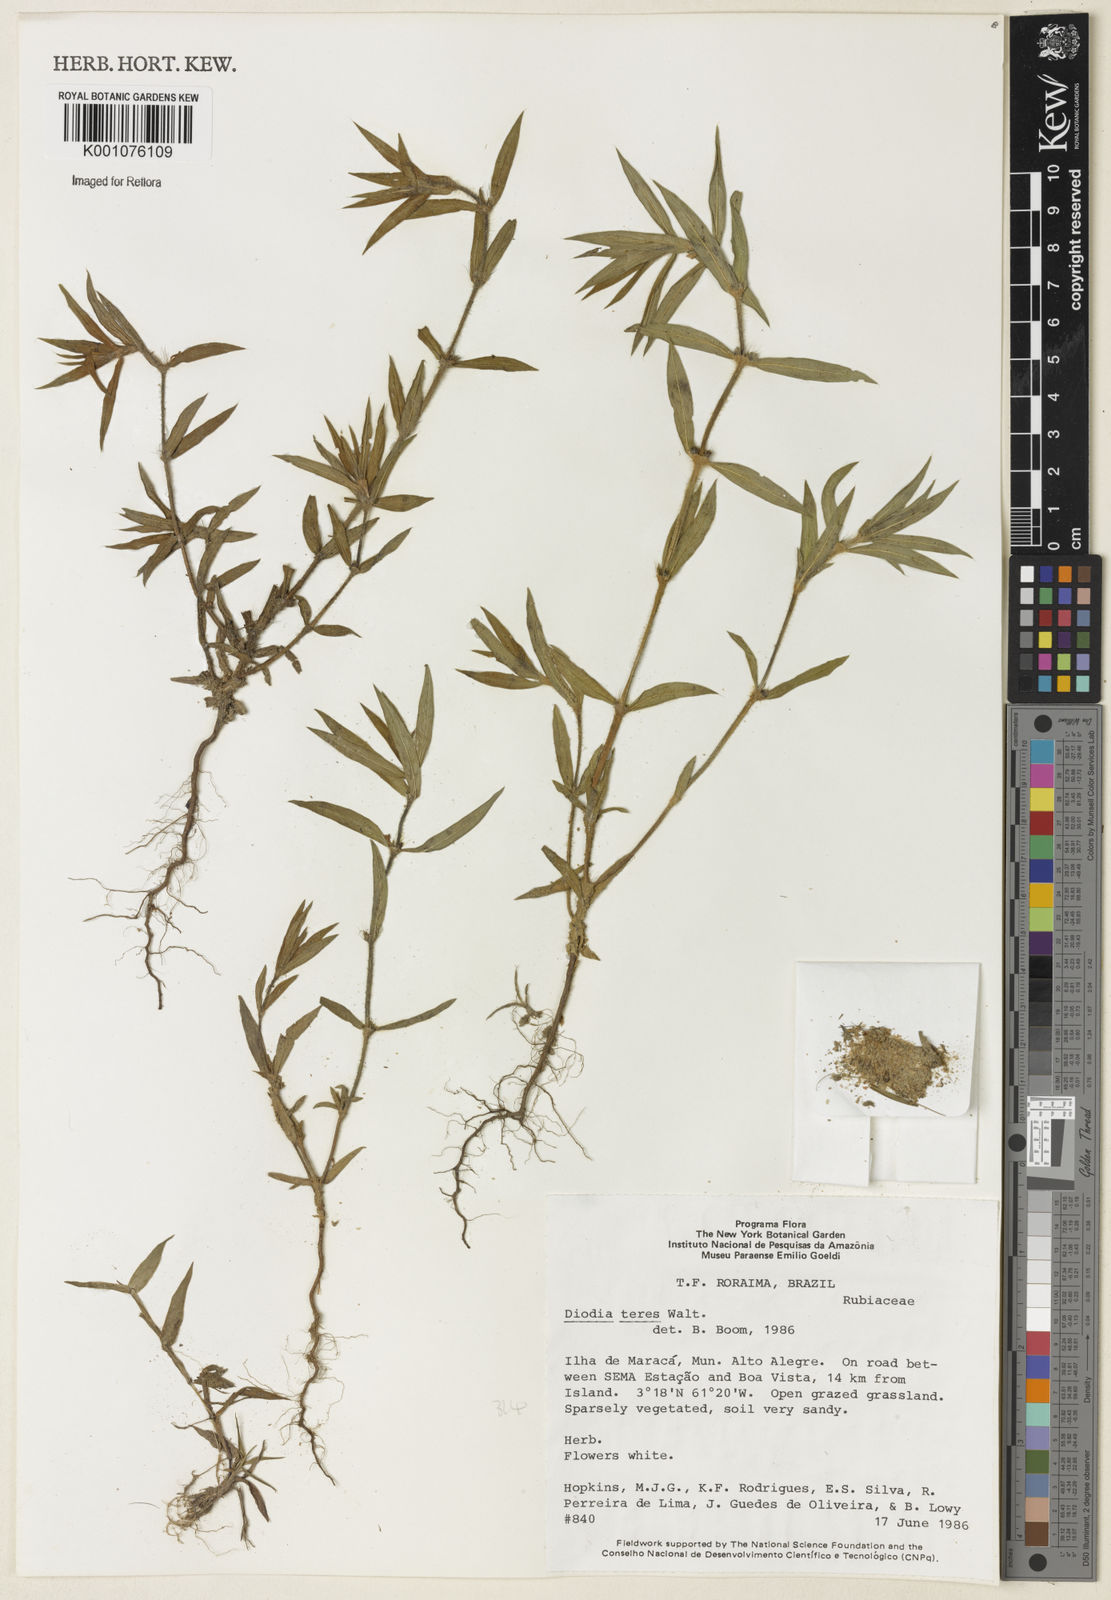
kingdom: Plantae
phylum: Tracheophyta
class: Magnoliopsida
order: Gentianales
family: Rubiaceae
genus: Hexasepalum
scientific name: Hexasepalum teres
